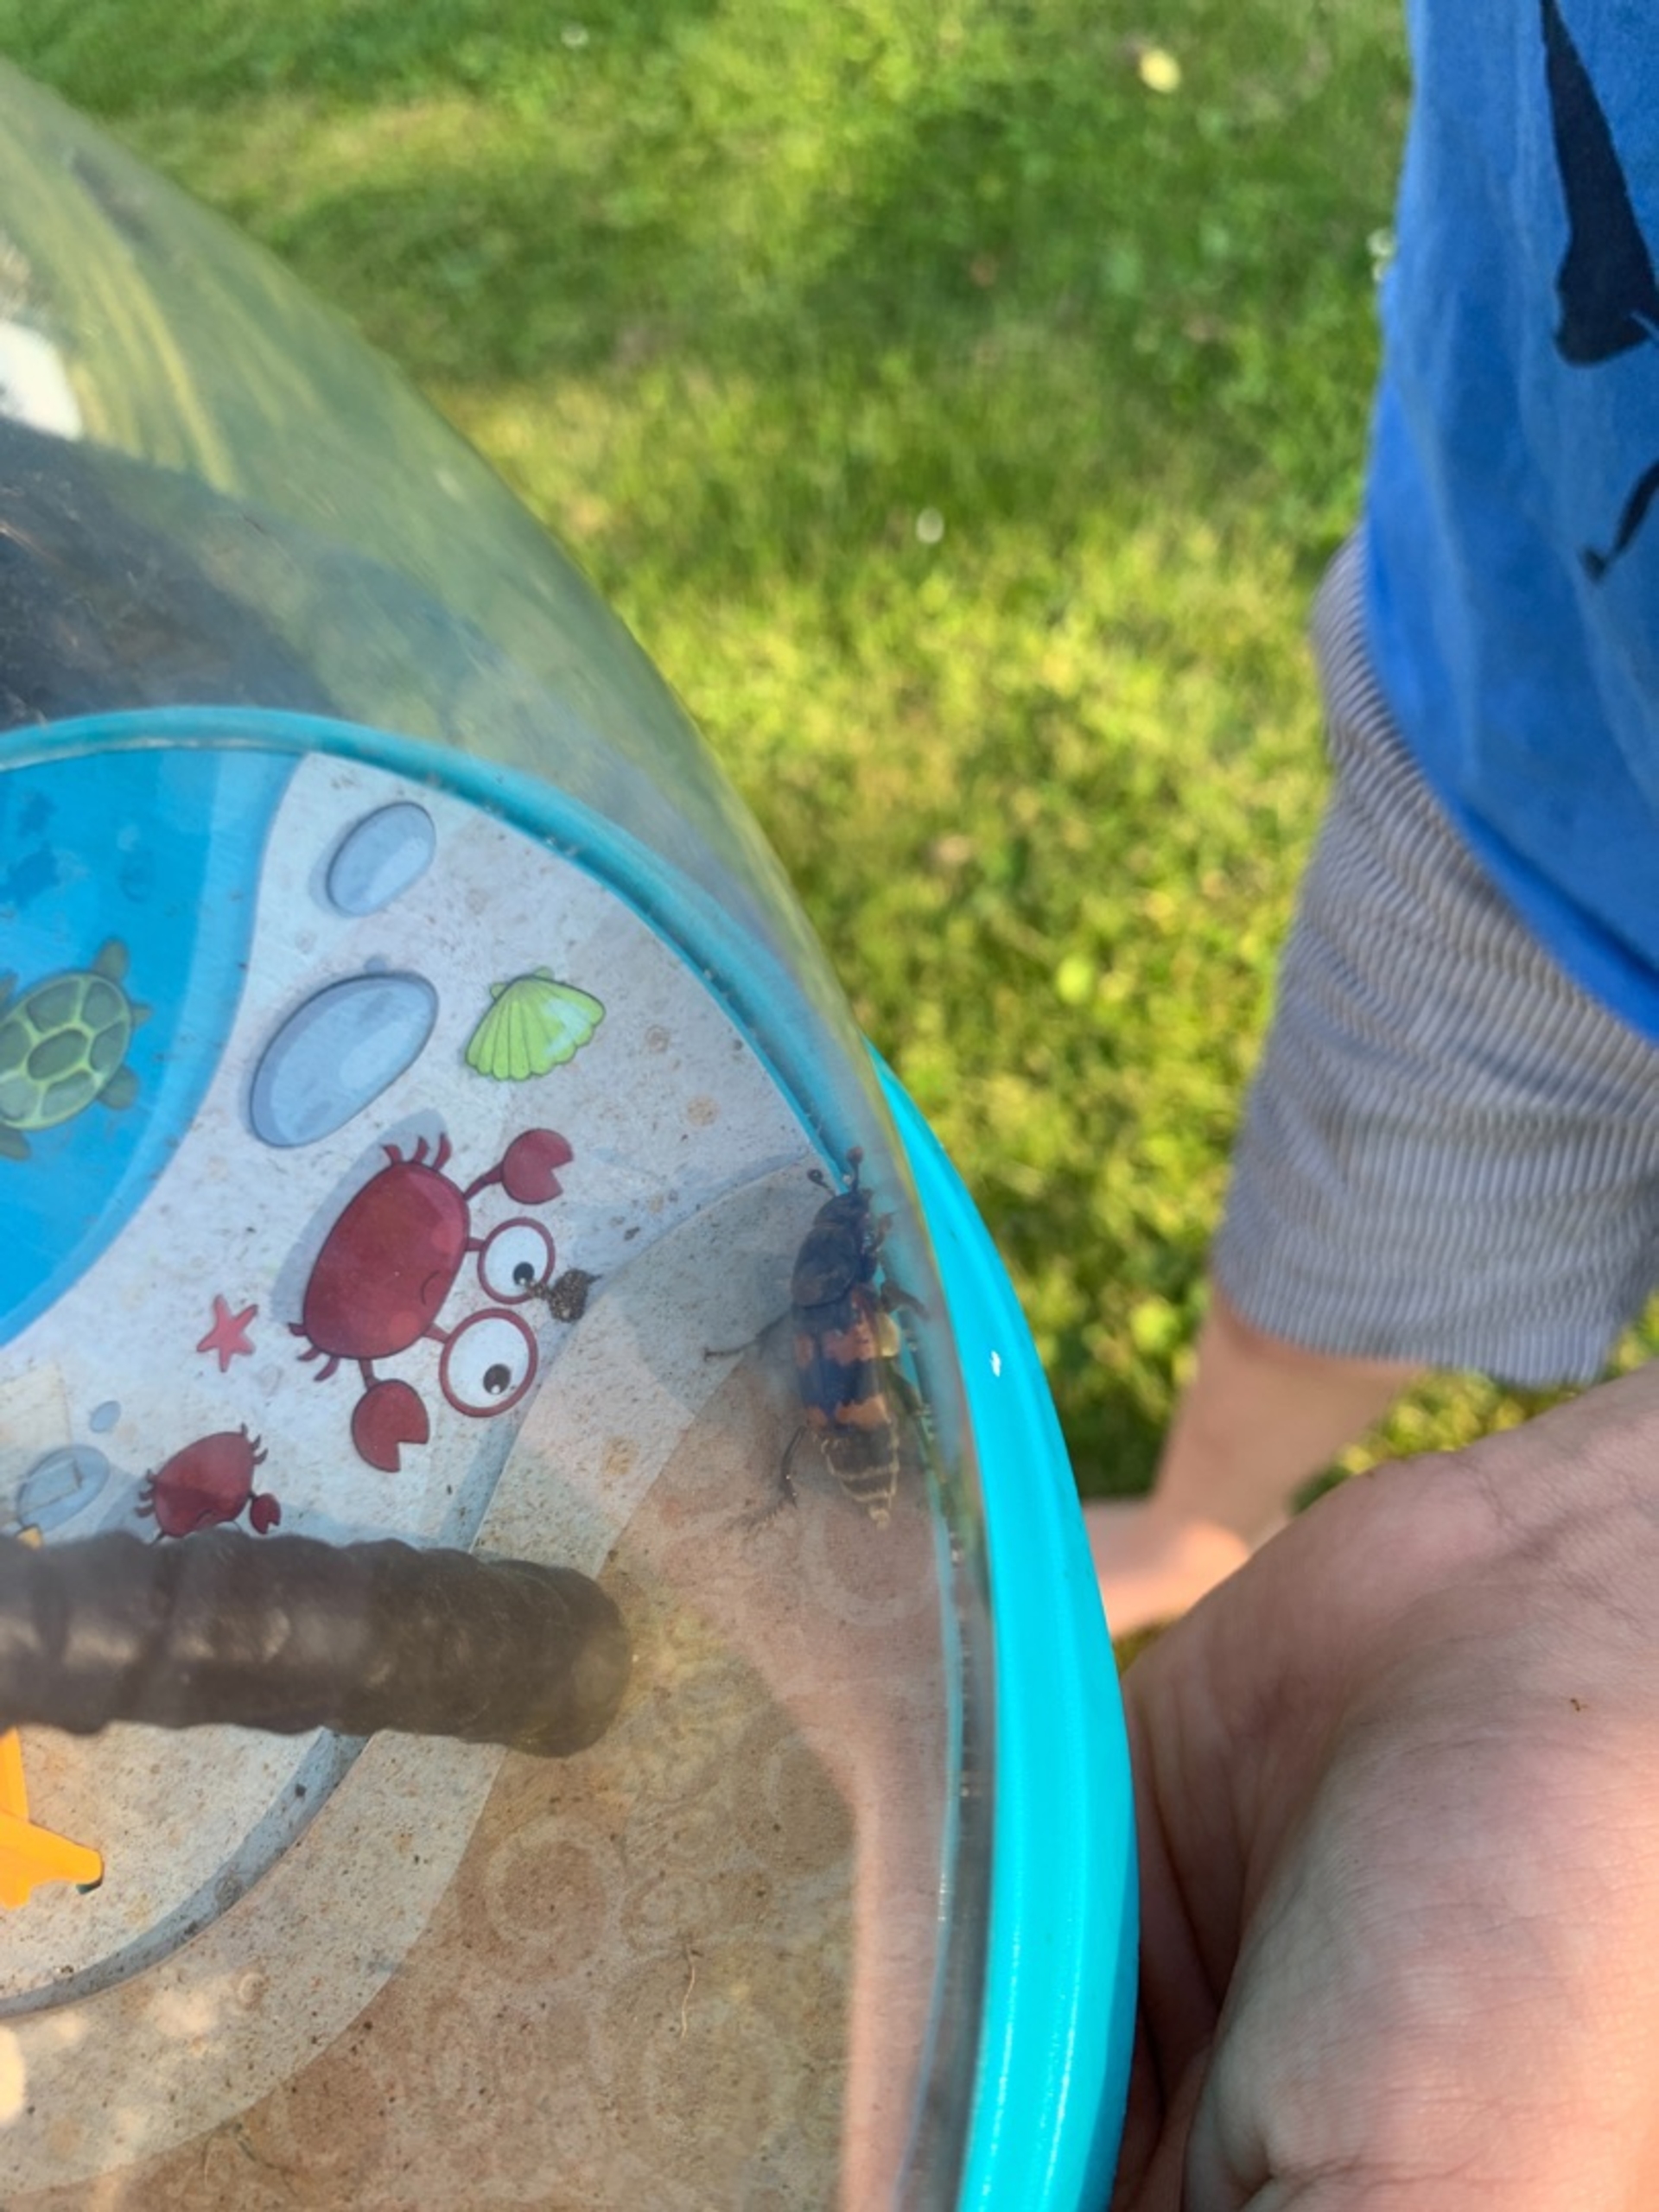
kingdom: Animalia
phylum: Arthropoda
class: Insecta
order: Coleoptera
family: Staphylinidae
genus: Nicrophorus
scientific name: Nicrophorus vespillo
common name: Krumbenet ådselgraver
